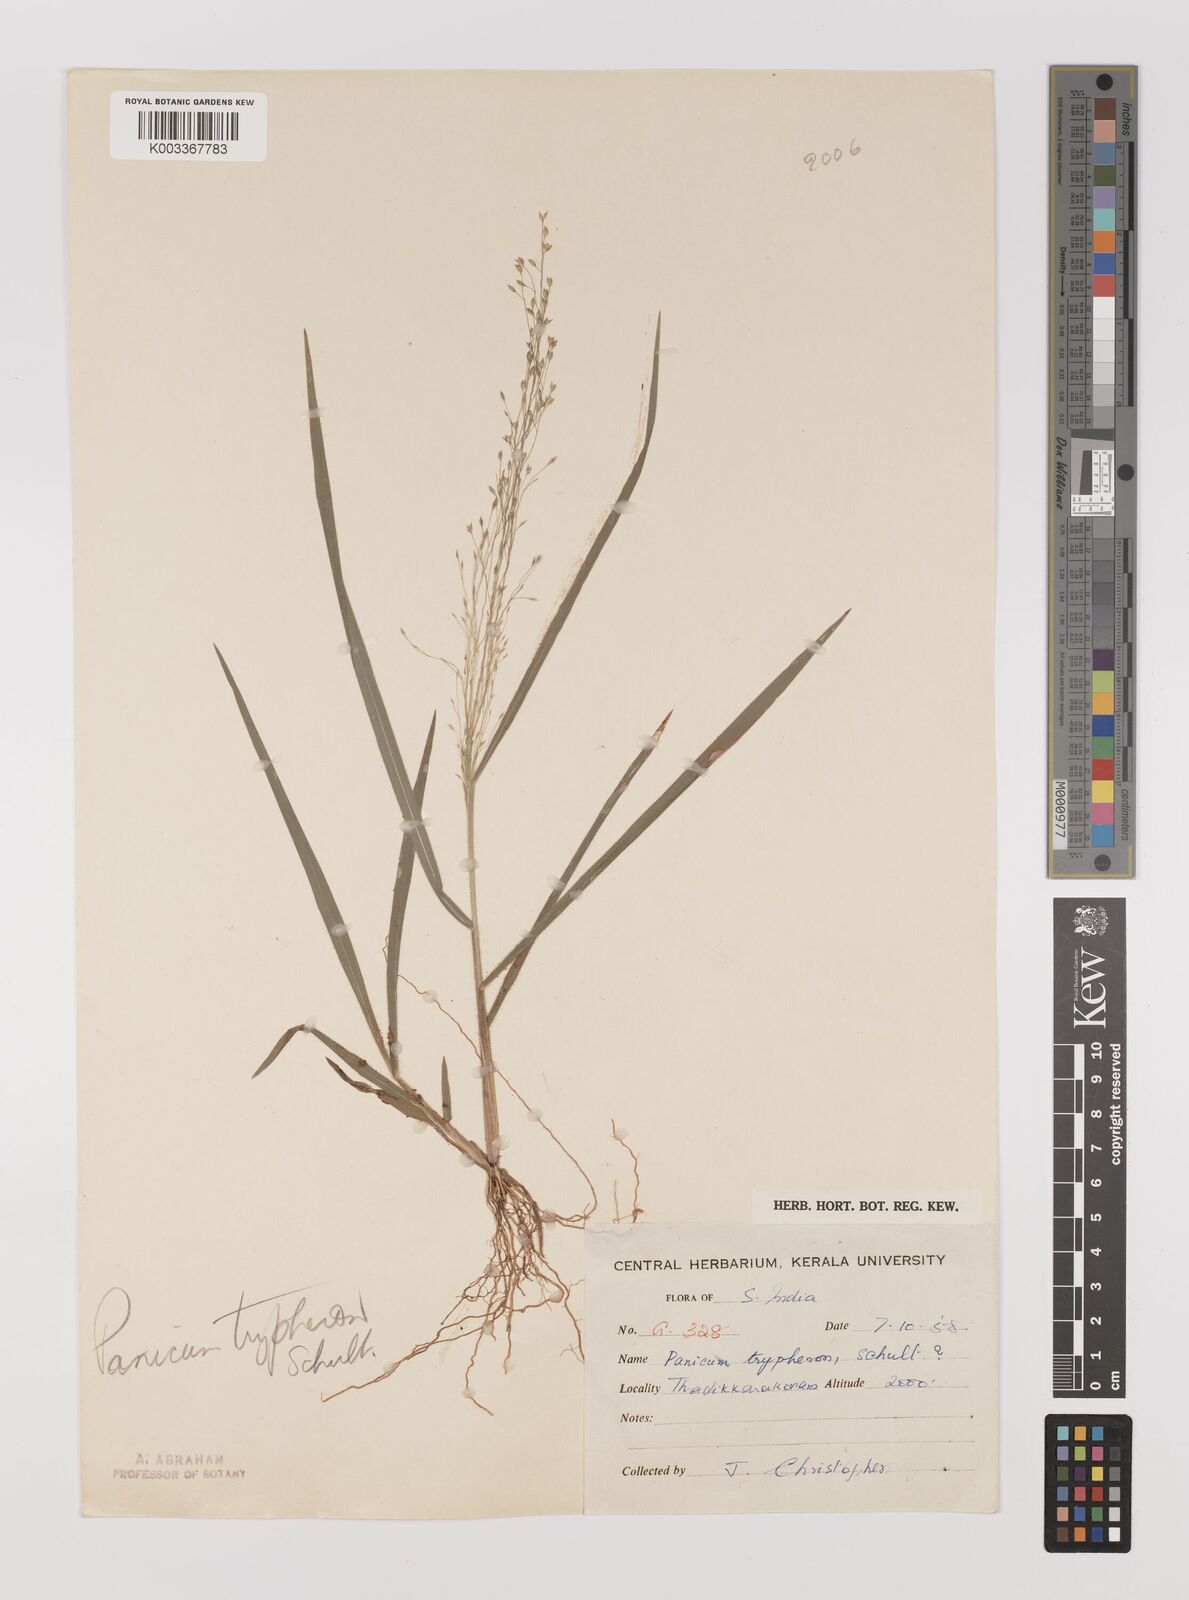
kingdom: Plantae
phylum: Tracheophyta
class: Liliopsida
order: Poales
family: Poaceae
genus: Panicum
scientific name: Panicum curviflorum
